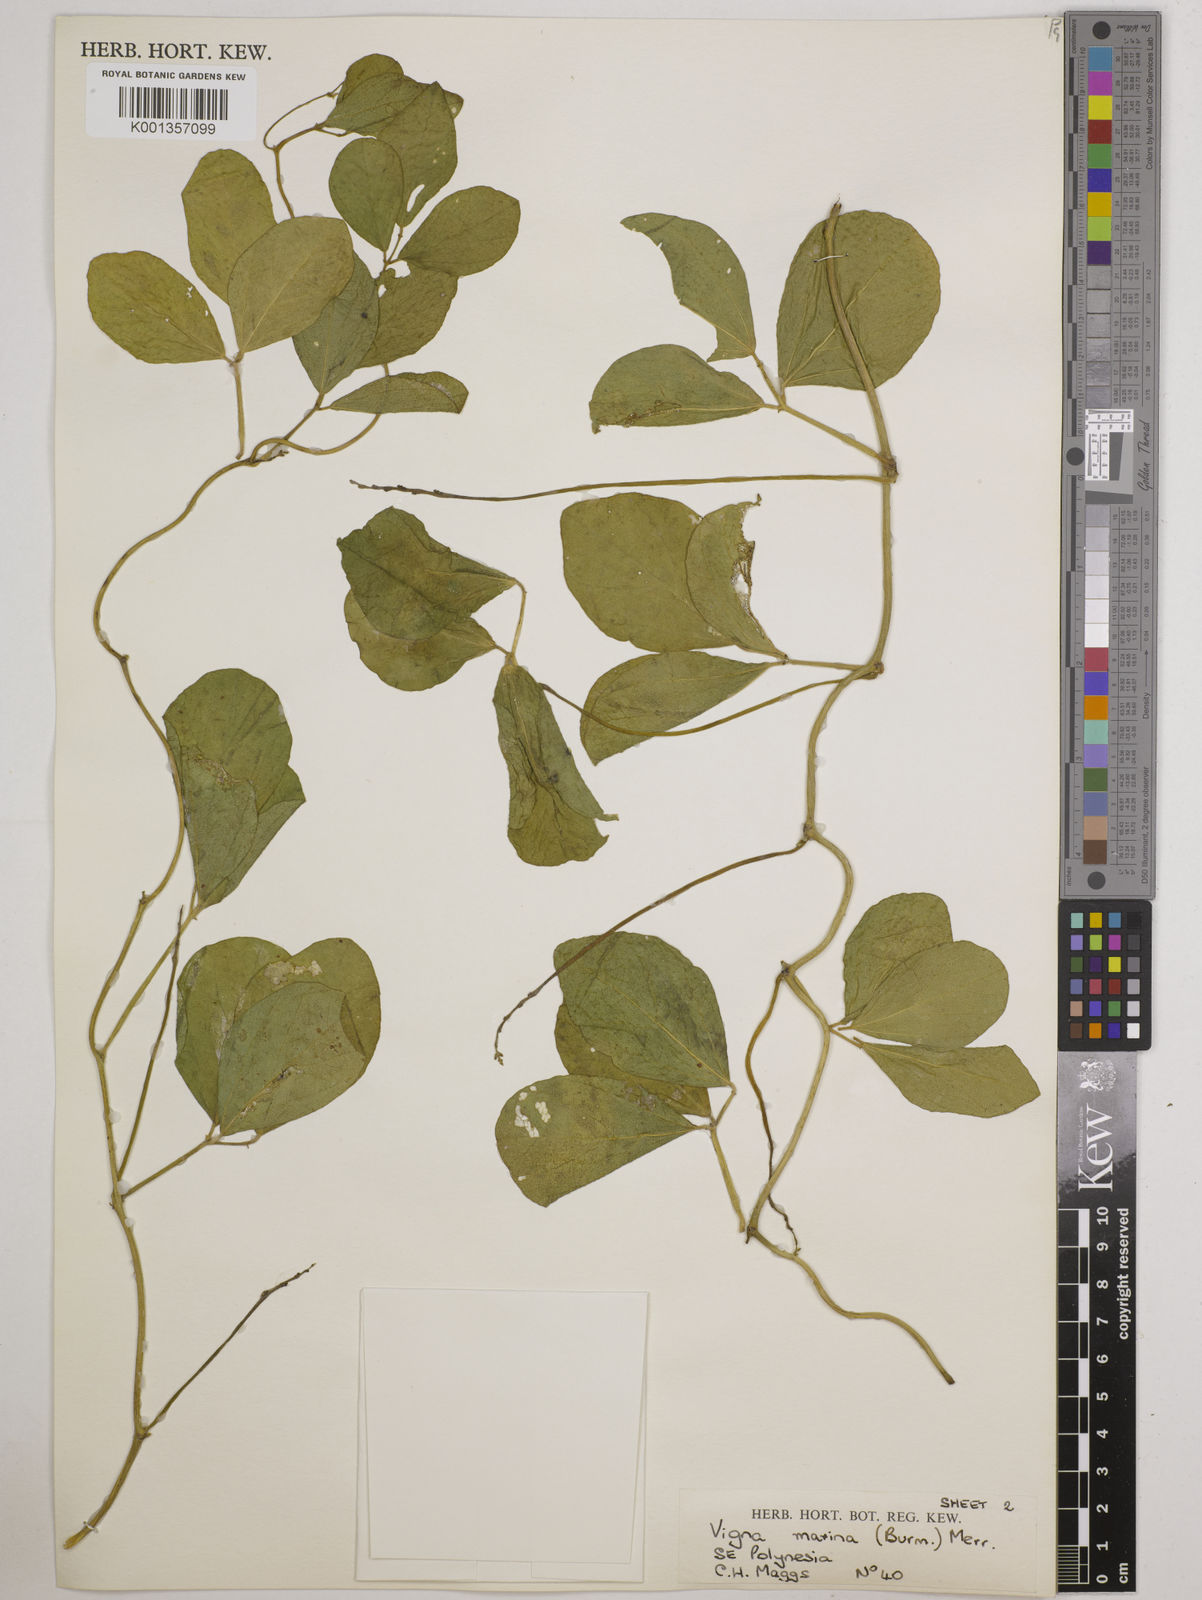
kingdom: Plantae
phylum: Tracheophyta
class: Magnoliopsida
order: Fabales
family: Fabaceae
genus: Vigna
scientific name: Vigna marina
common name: Dune-bean
